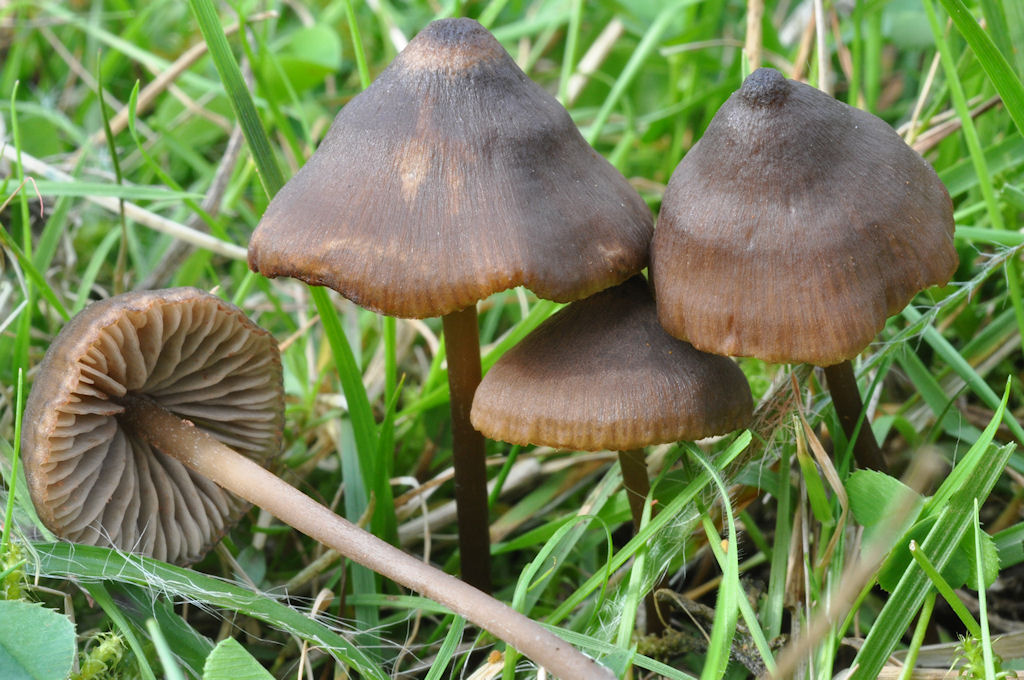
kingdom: Fungi
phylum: Basidiomycota
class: Agaricomycetes
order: Agaricales
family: Entolomataceae
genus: Entoloma
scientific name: Entoloma clandestinum
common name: tykbladet rødblad
